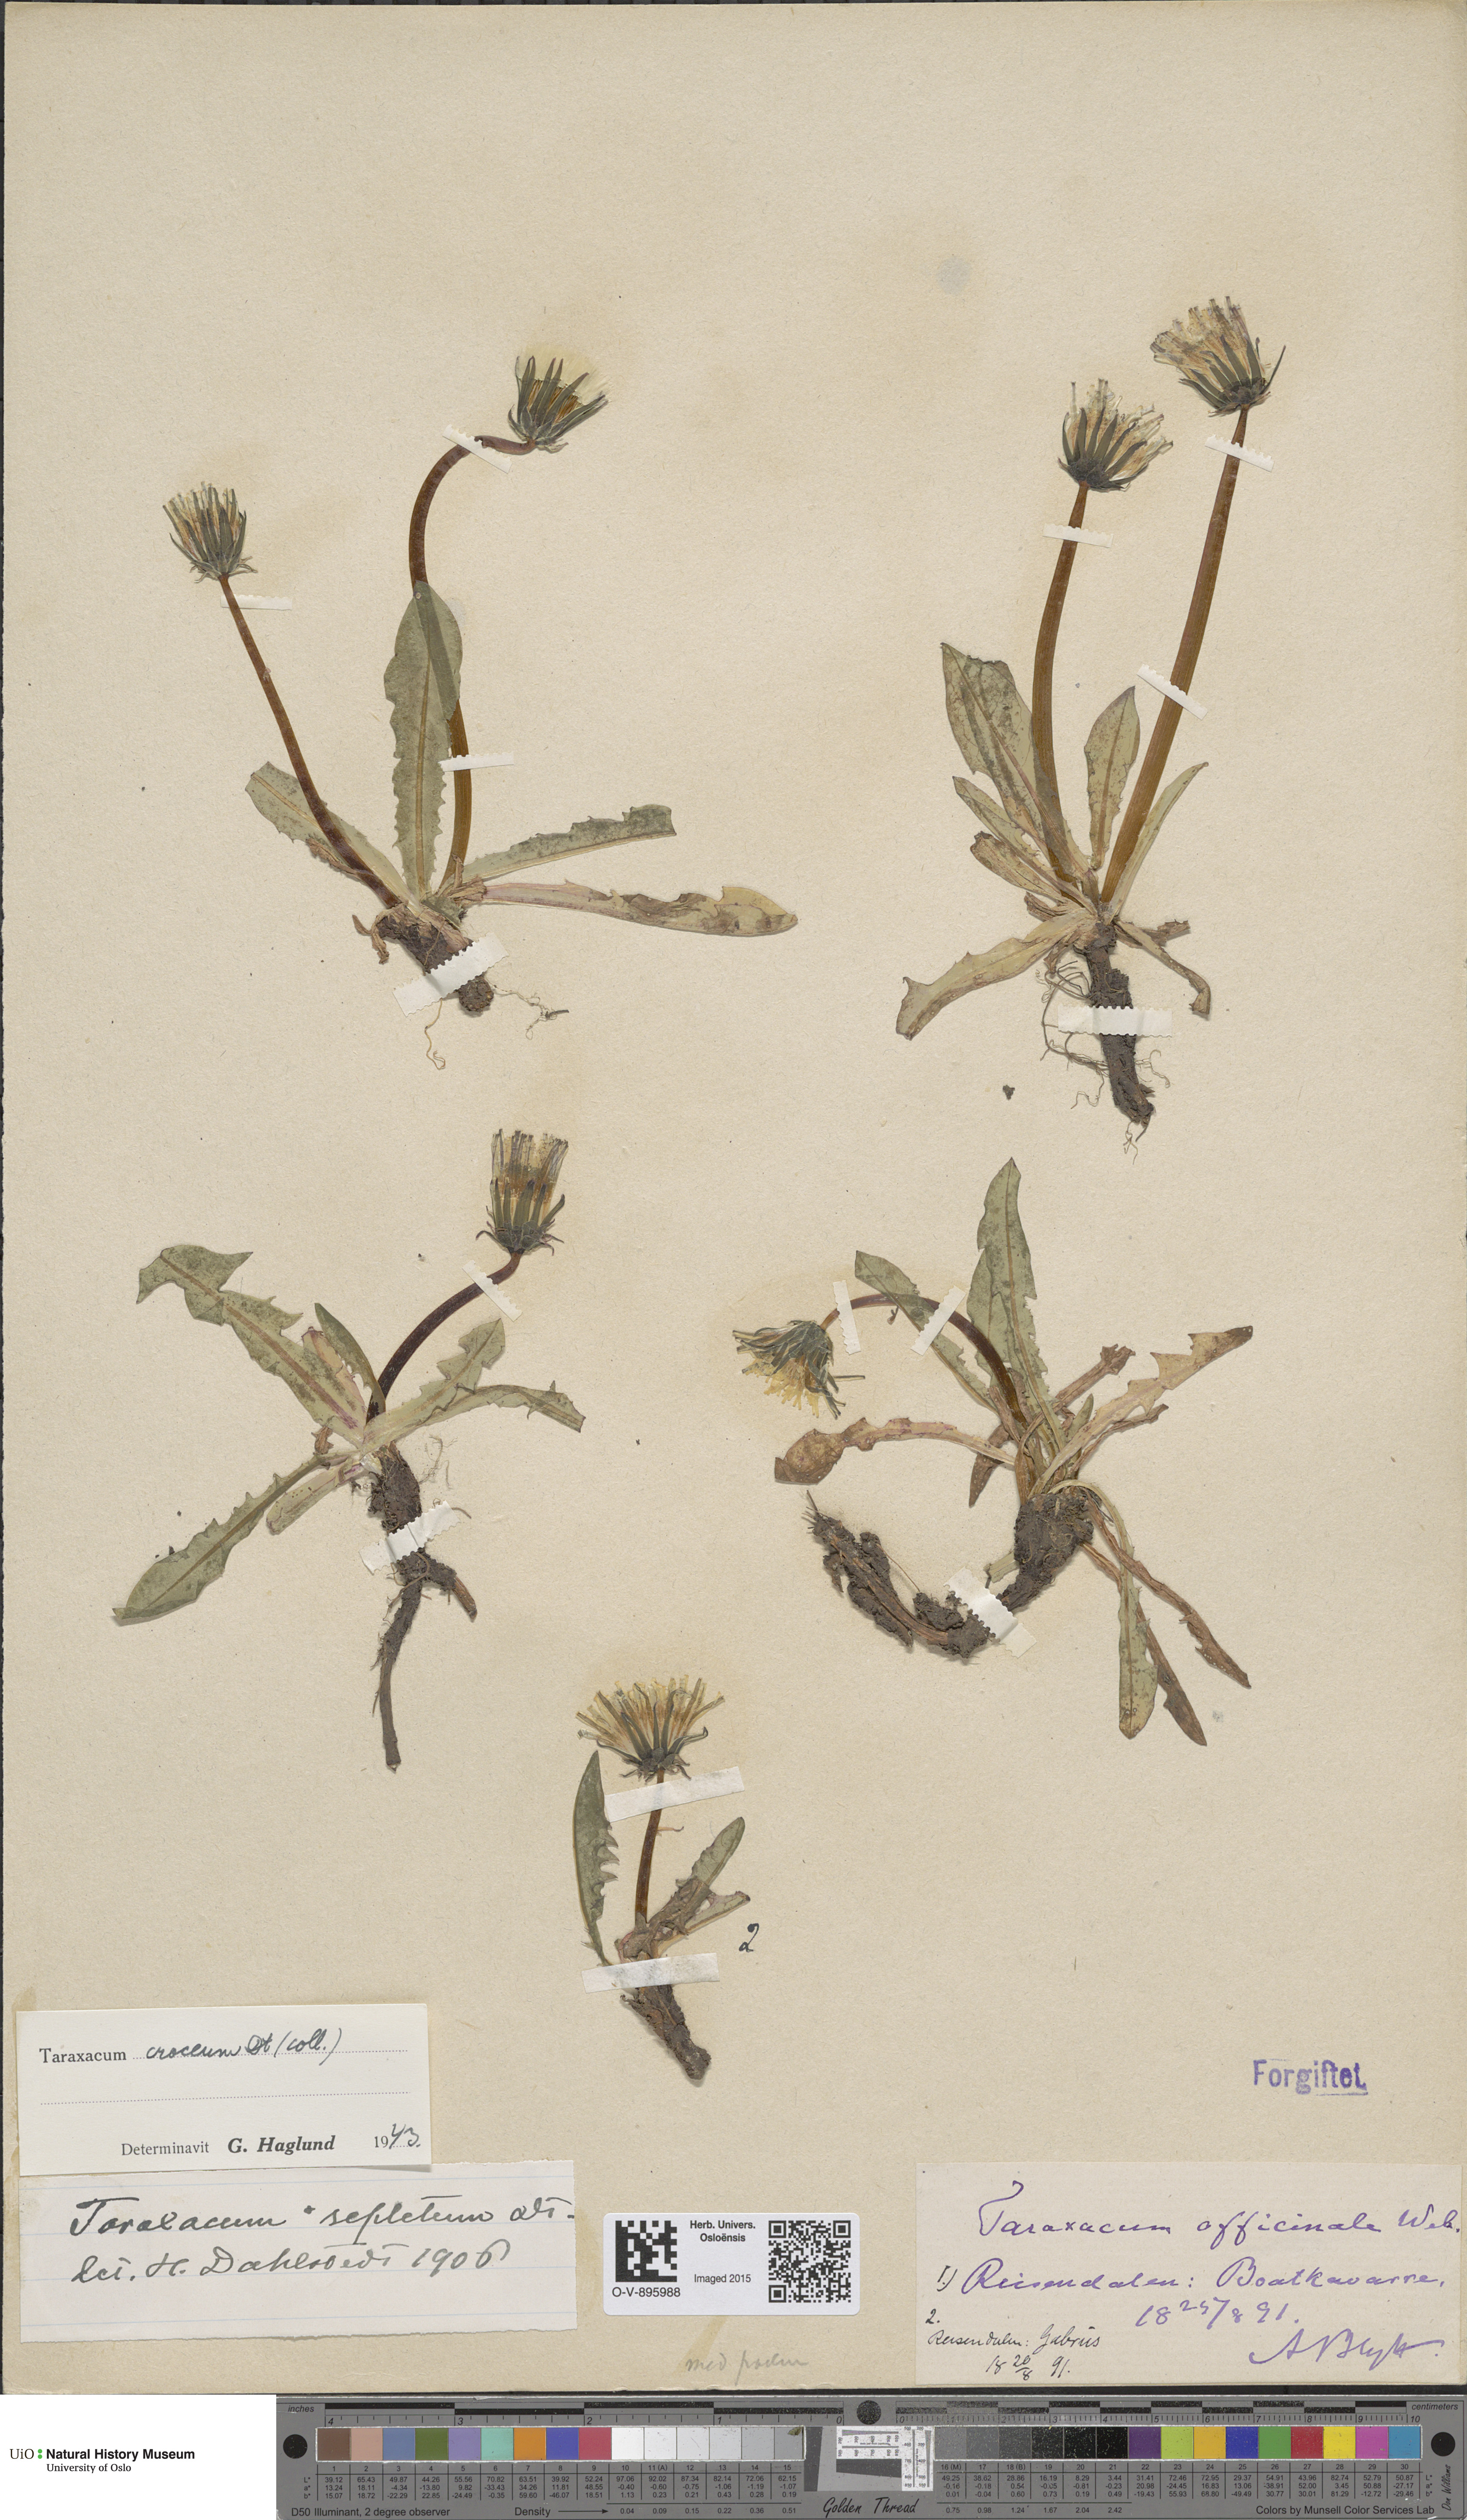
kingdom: Plantae
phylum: Tracheophyta
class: Magnoliopsida
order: Asterales
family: Asteraceae
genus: Taraxacum
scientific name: Taraxacum croceum
